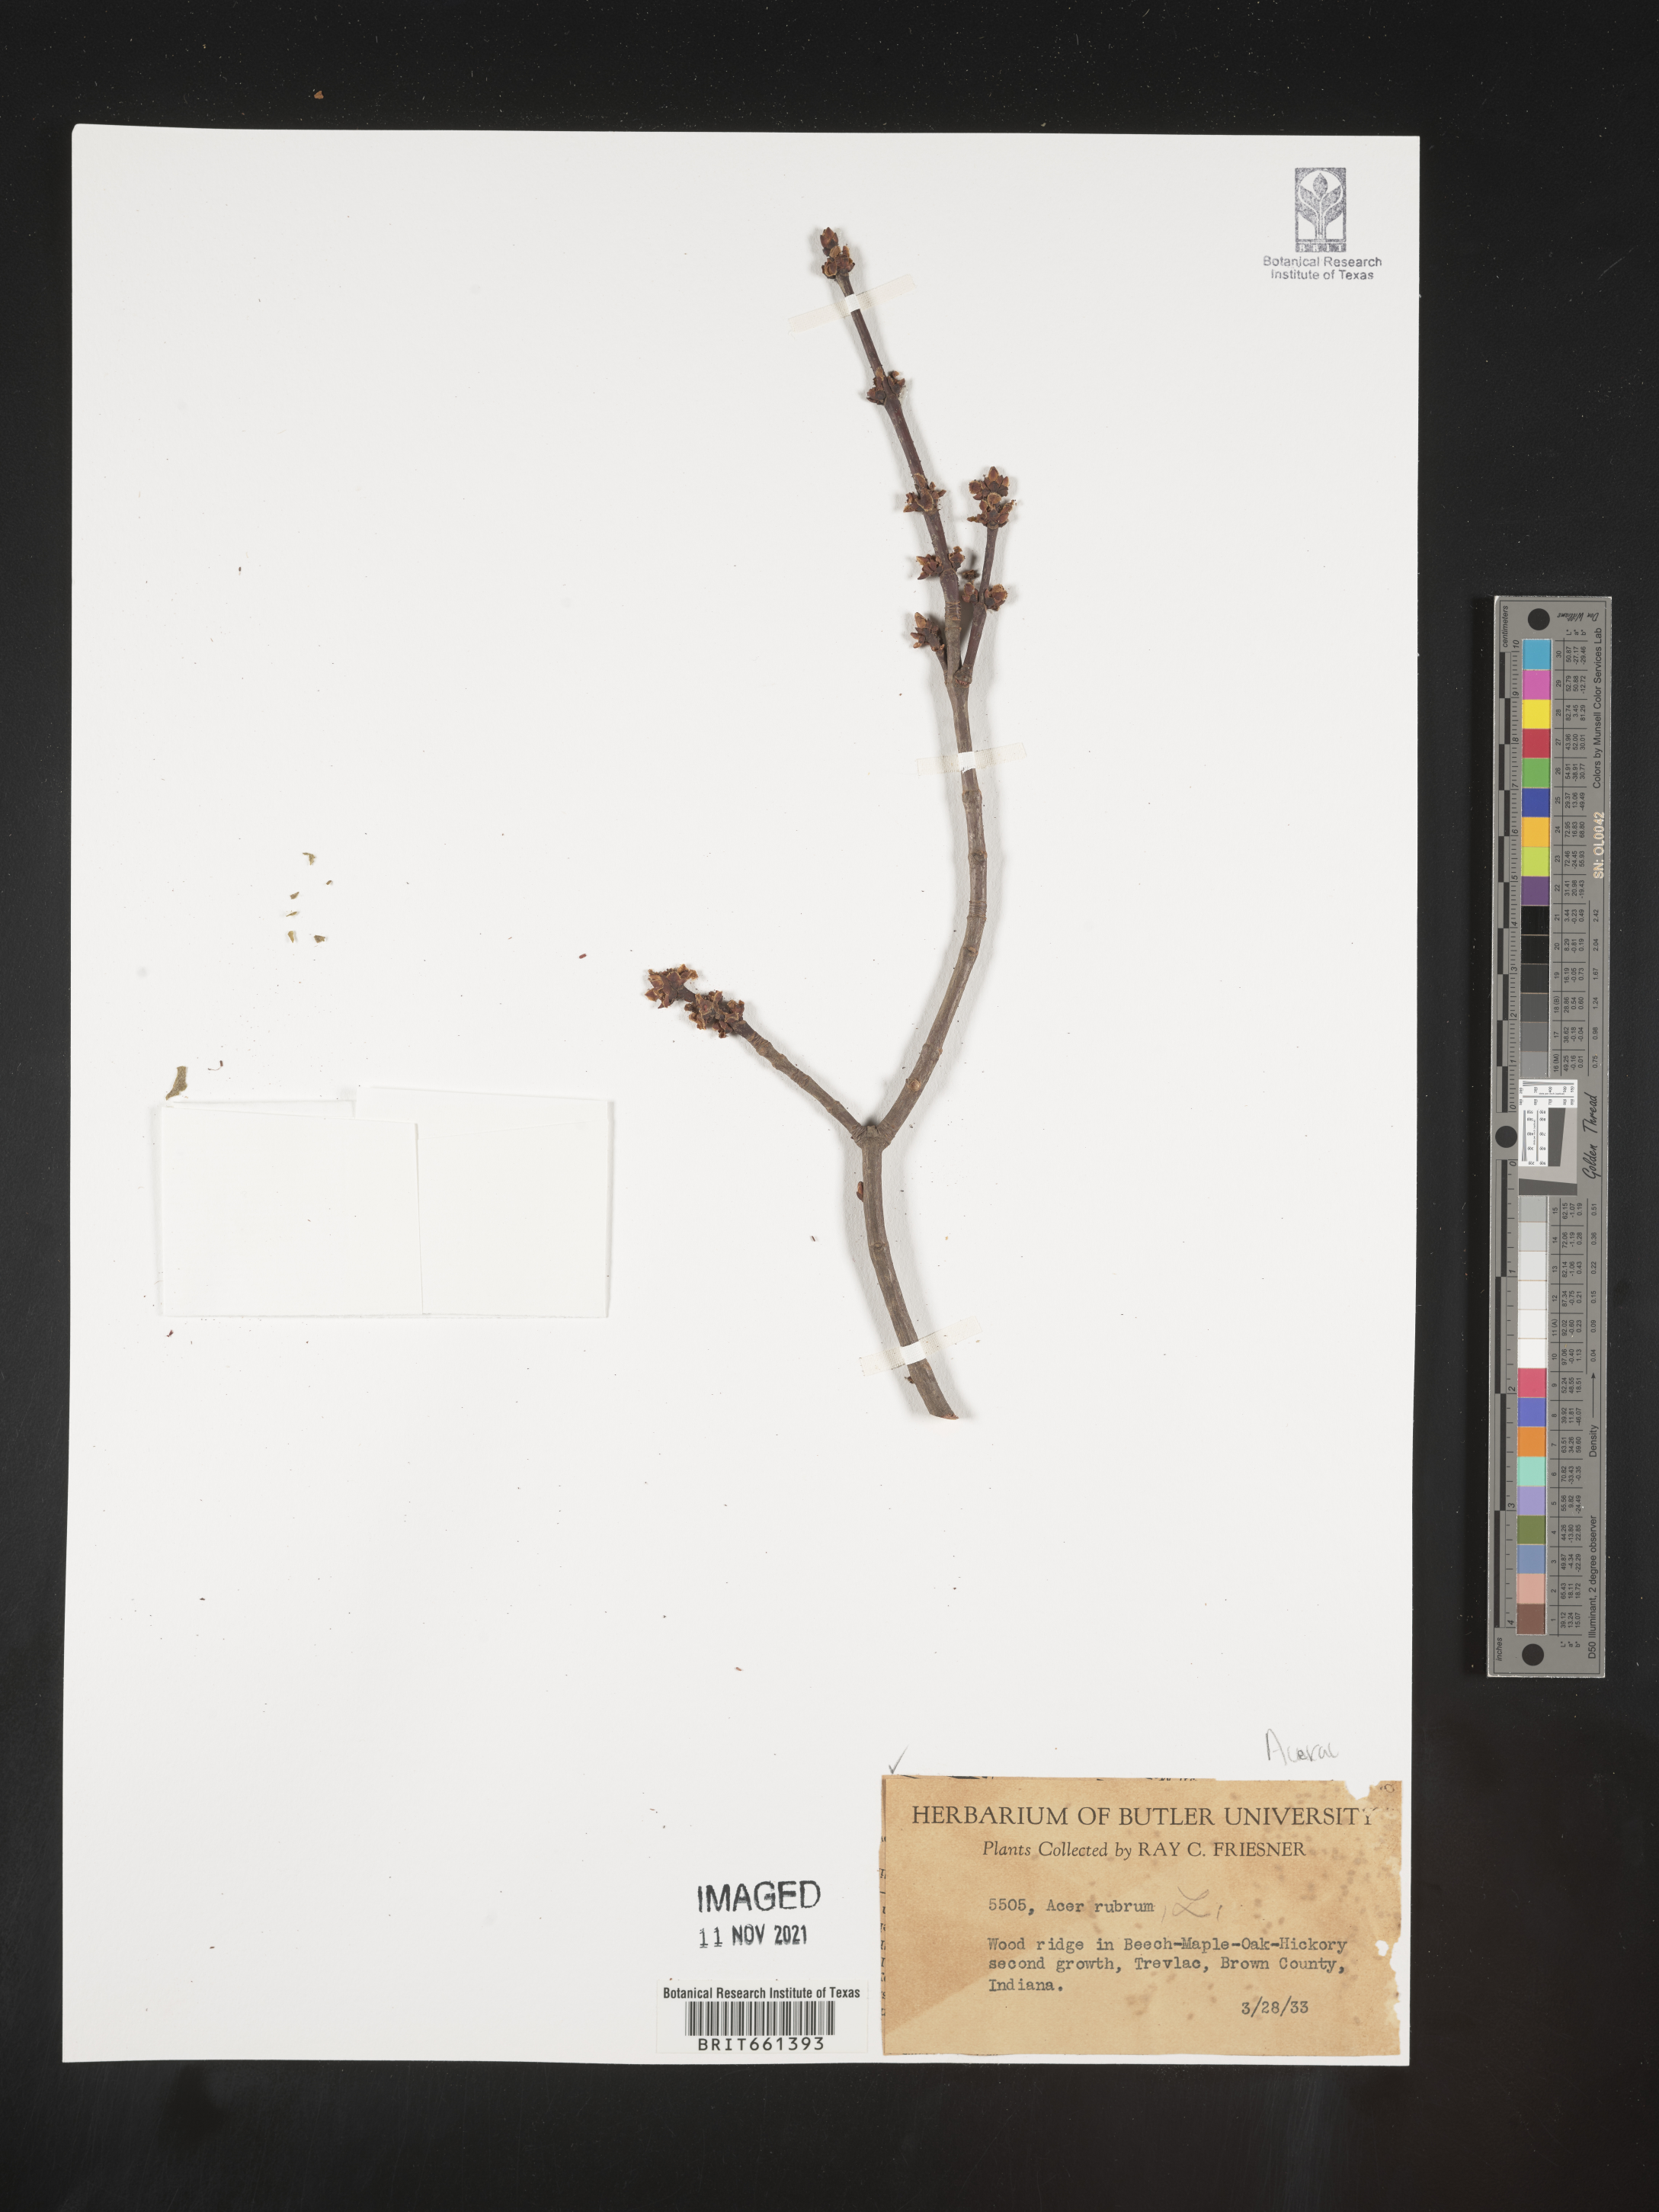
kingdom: Plantae
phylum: Tracheophyta
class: Magnoliopsida
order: Sapindales
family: Sapindaceae
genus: Acer
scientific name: Acer rubrum
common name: Red maple
